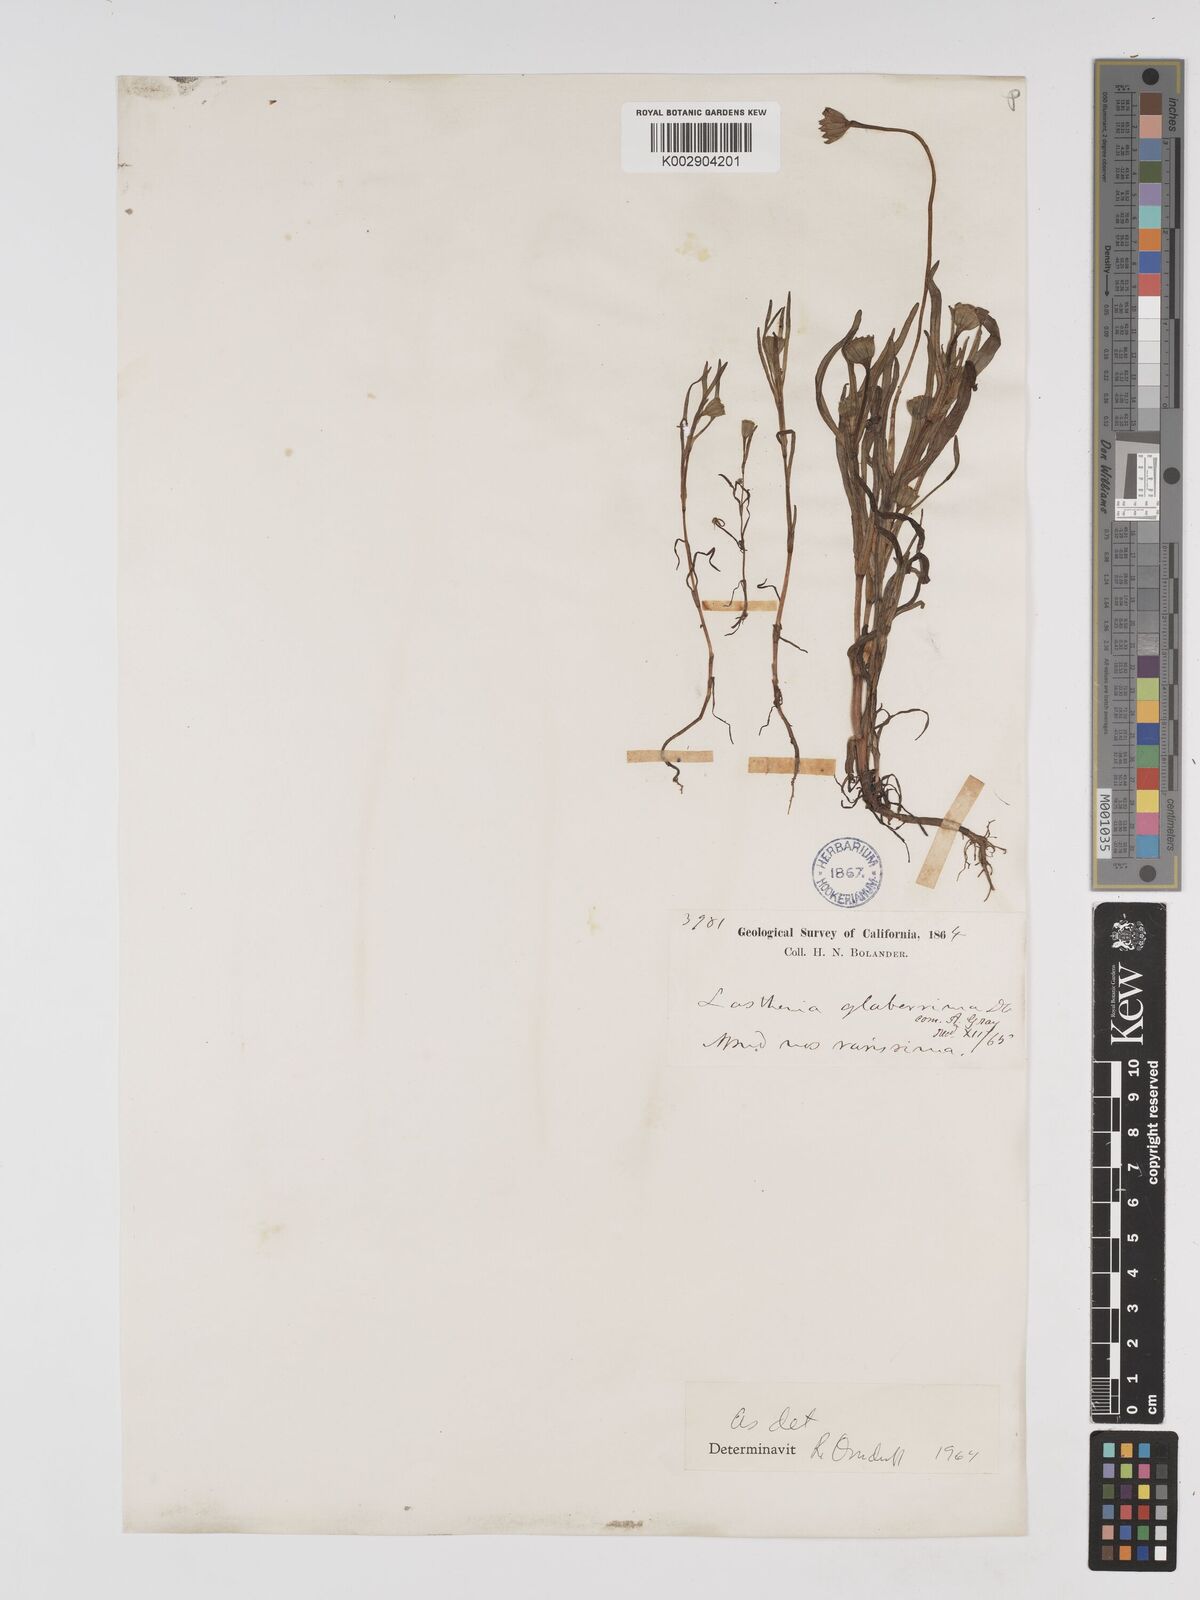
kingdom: Plantae
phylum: Tracheophyta
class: Magnoliopsida
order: Asterales
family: Asteraceae
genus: Lasthenia
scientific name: Lasthenia glaberrima
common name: Smooth goldfields
